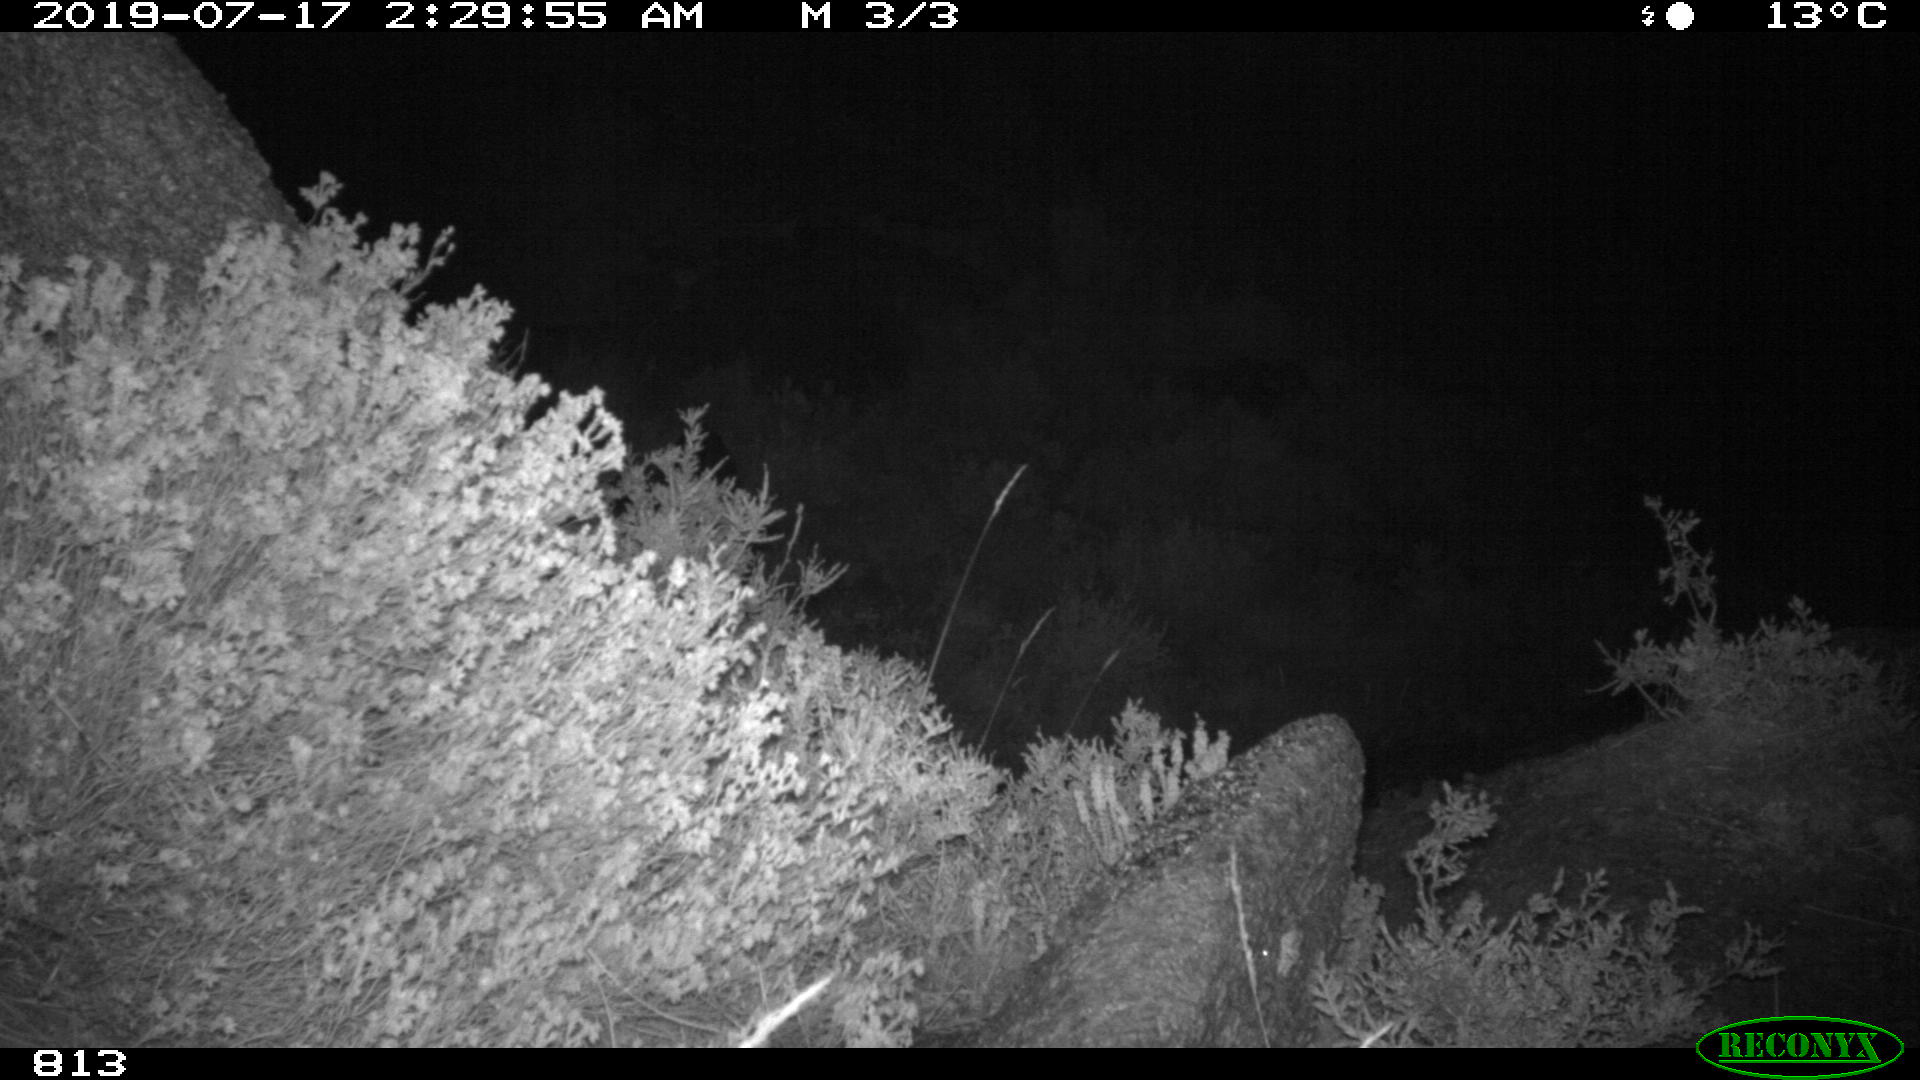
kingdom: Animalia
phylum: Chordata
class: Mammalia
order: Artiodactyla
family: Suidae
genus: Sus
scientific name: Sus scrofa
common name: Wild boar
